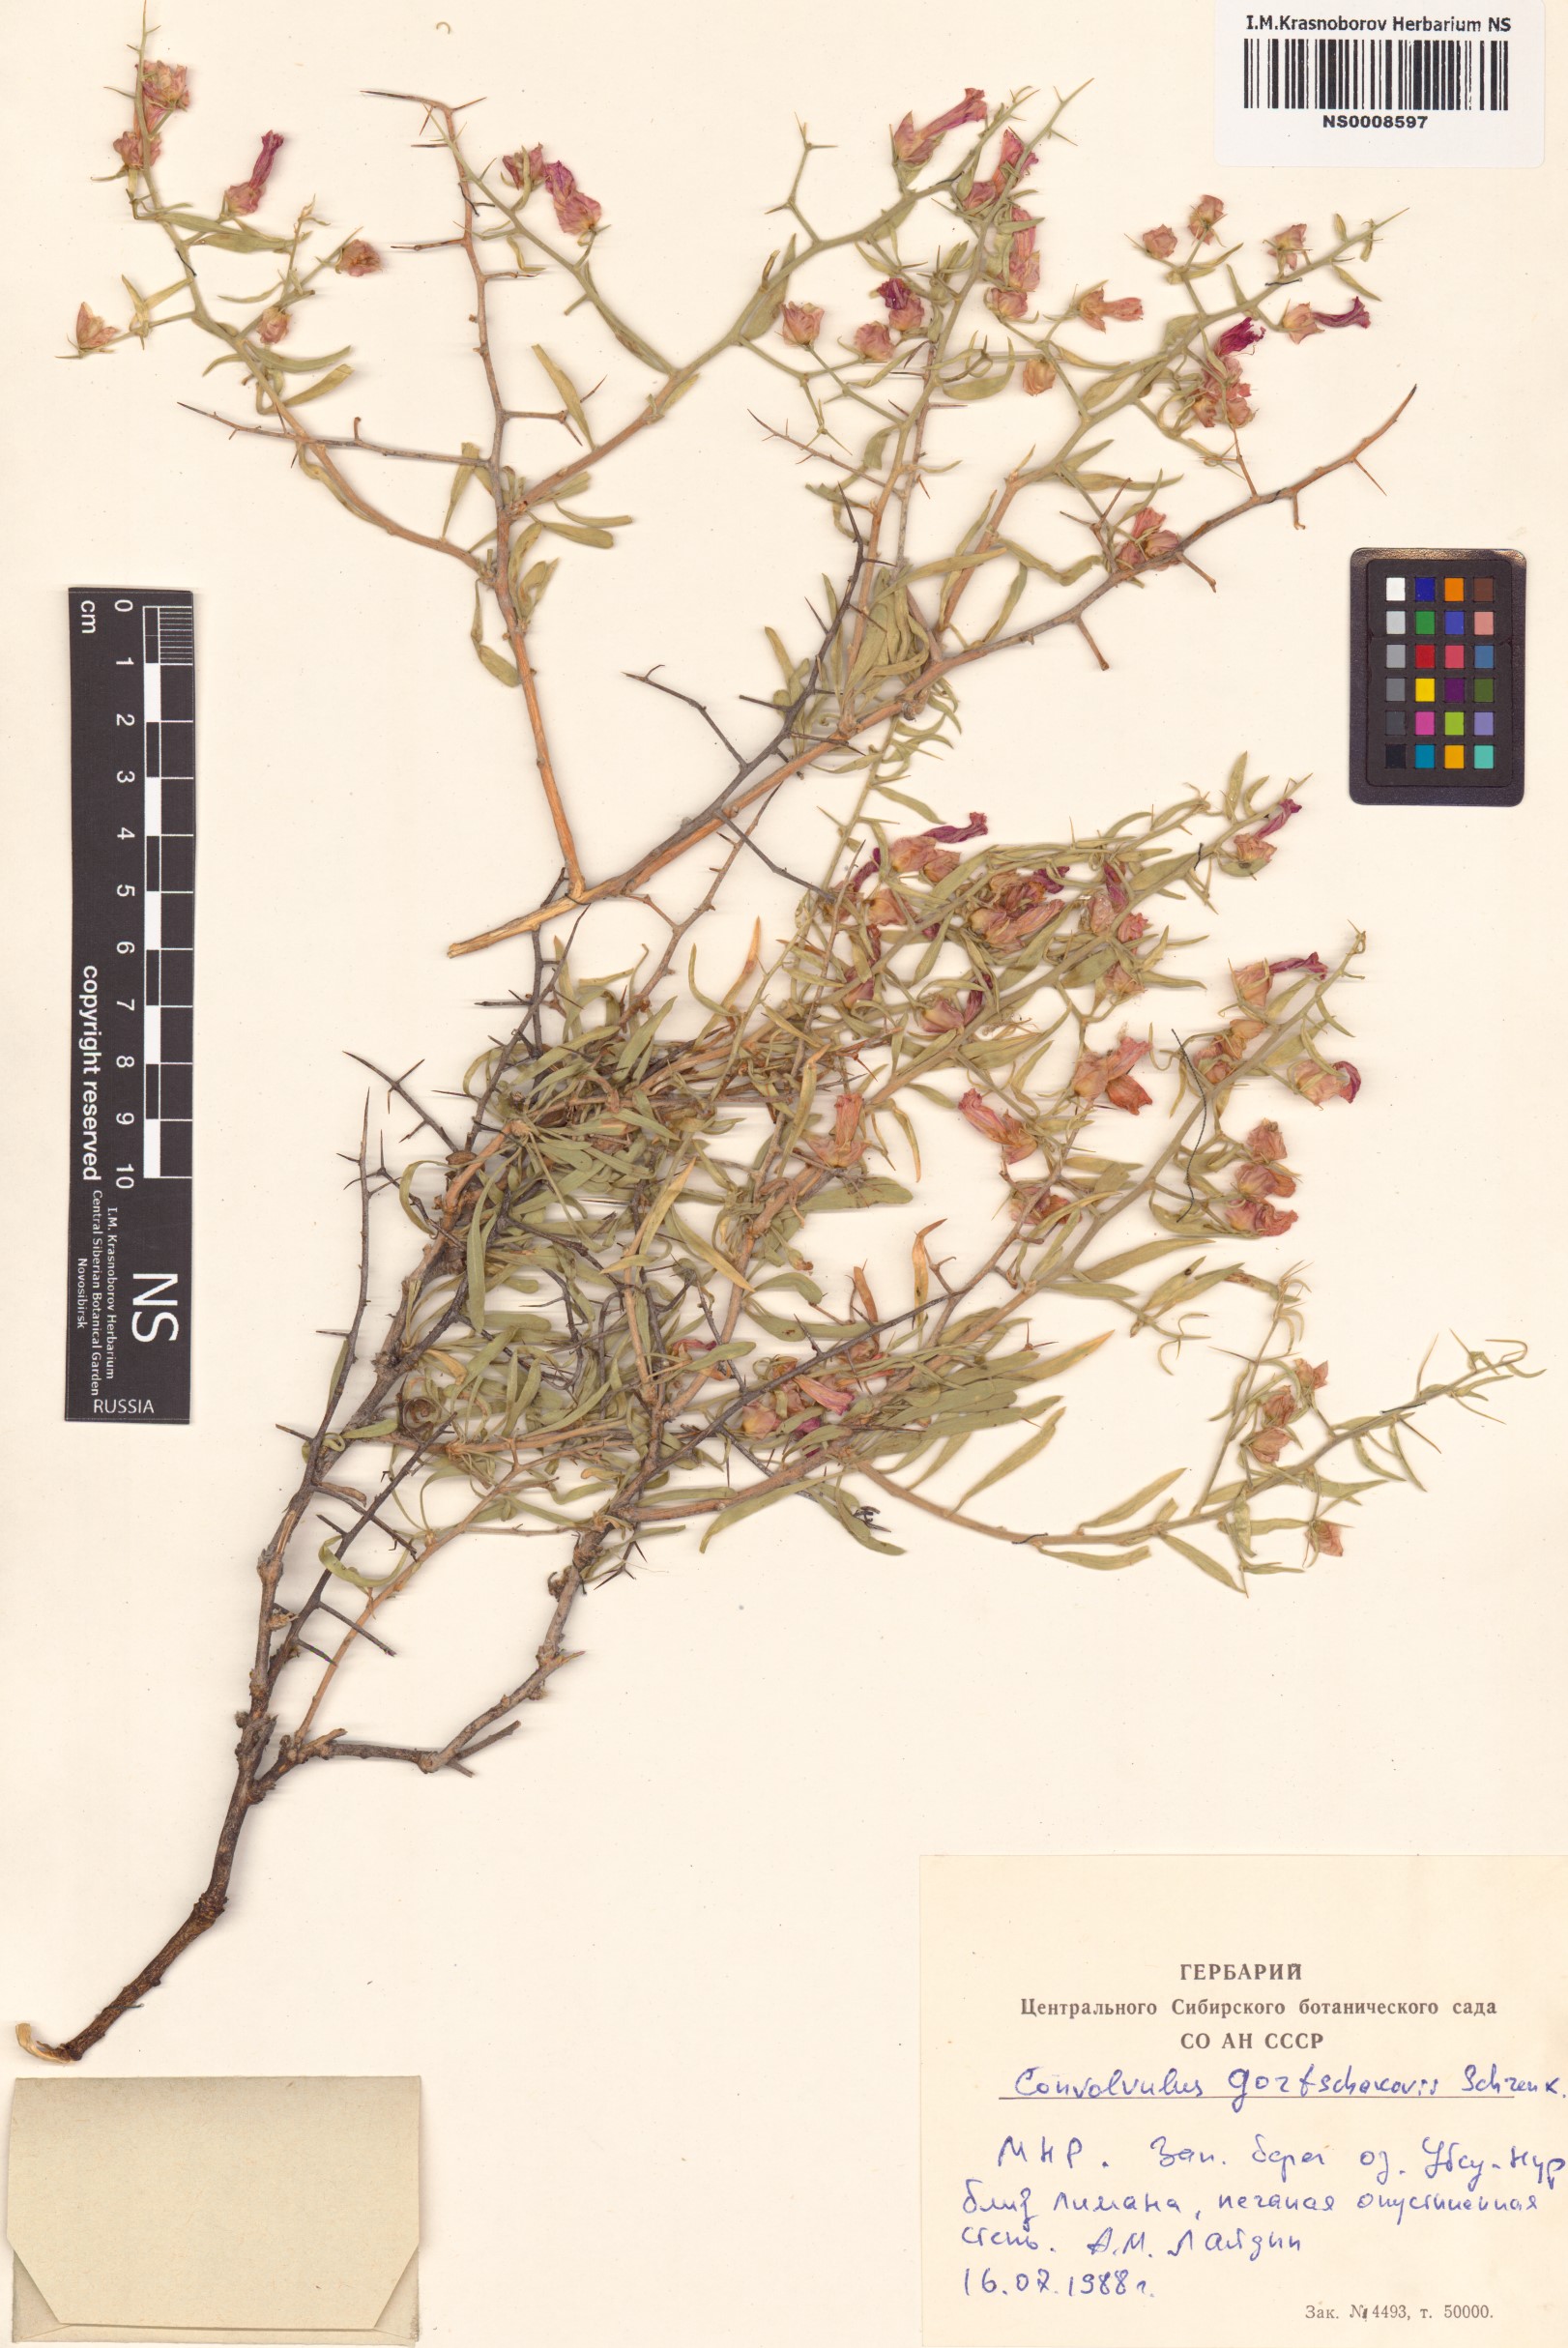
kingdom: Plantae
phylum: Tracheophyta
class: Magnoliopsida
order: Solanales
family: Convolvulaceae
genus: Convolvulus
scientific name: Convolvulus gortschakovii
